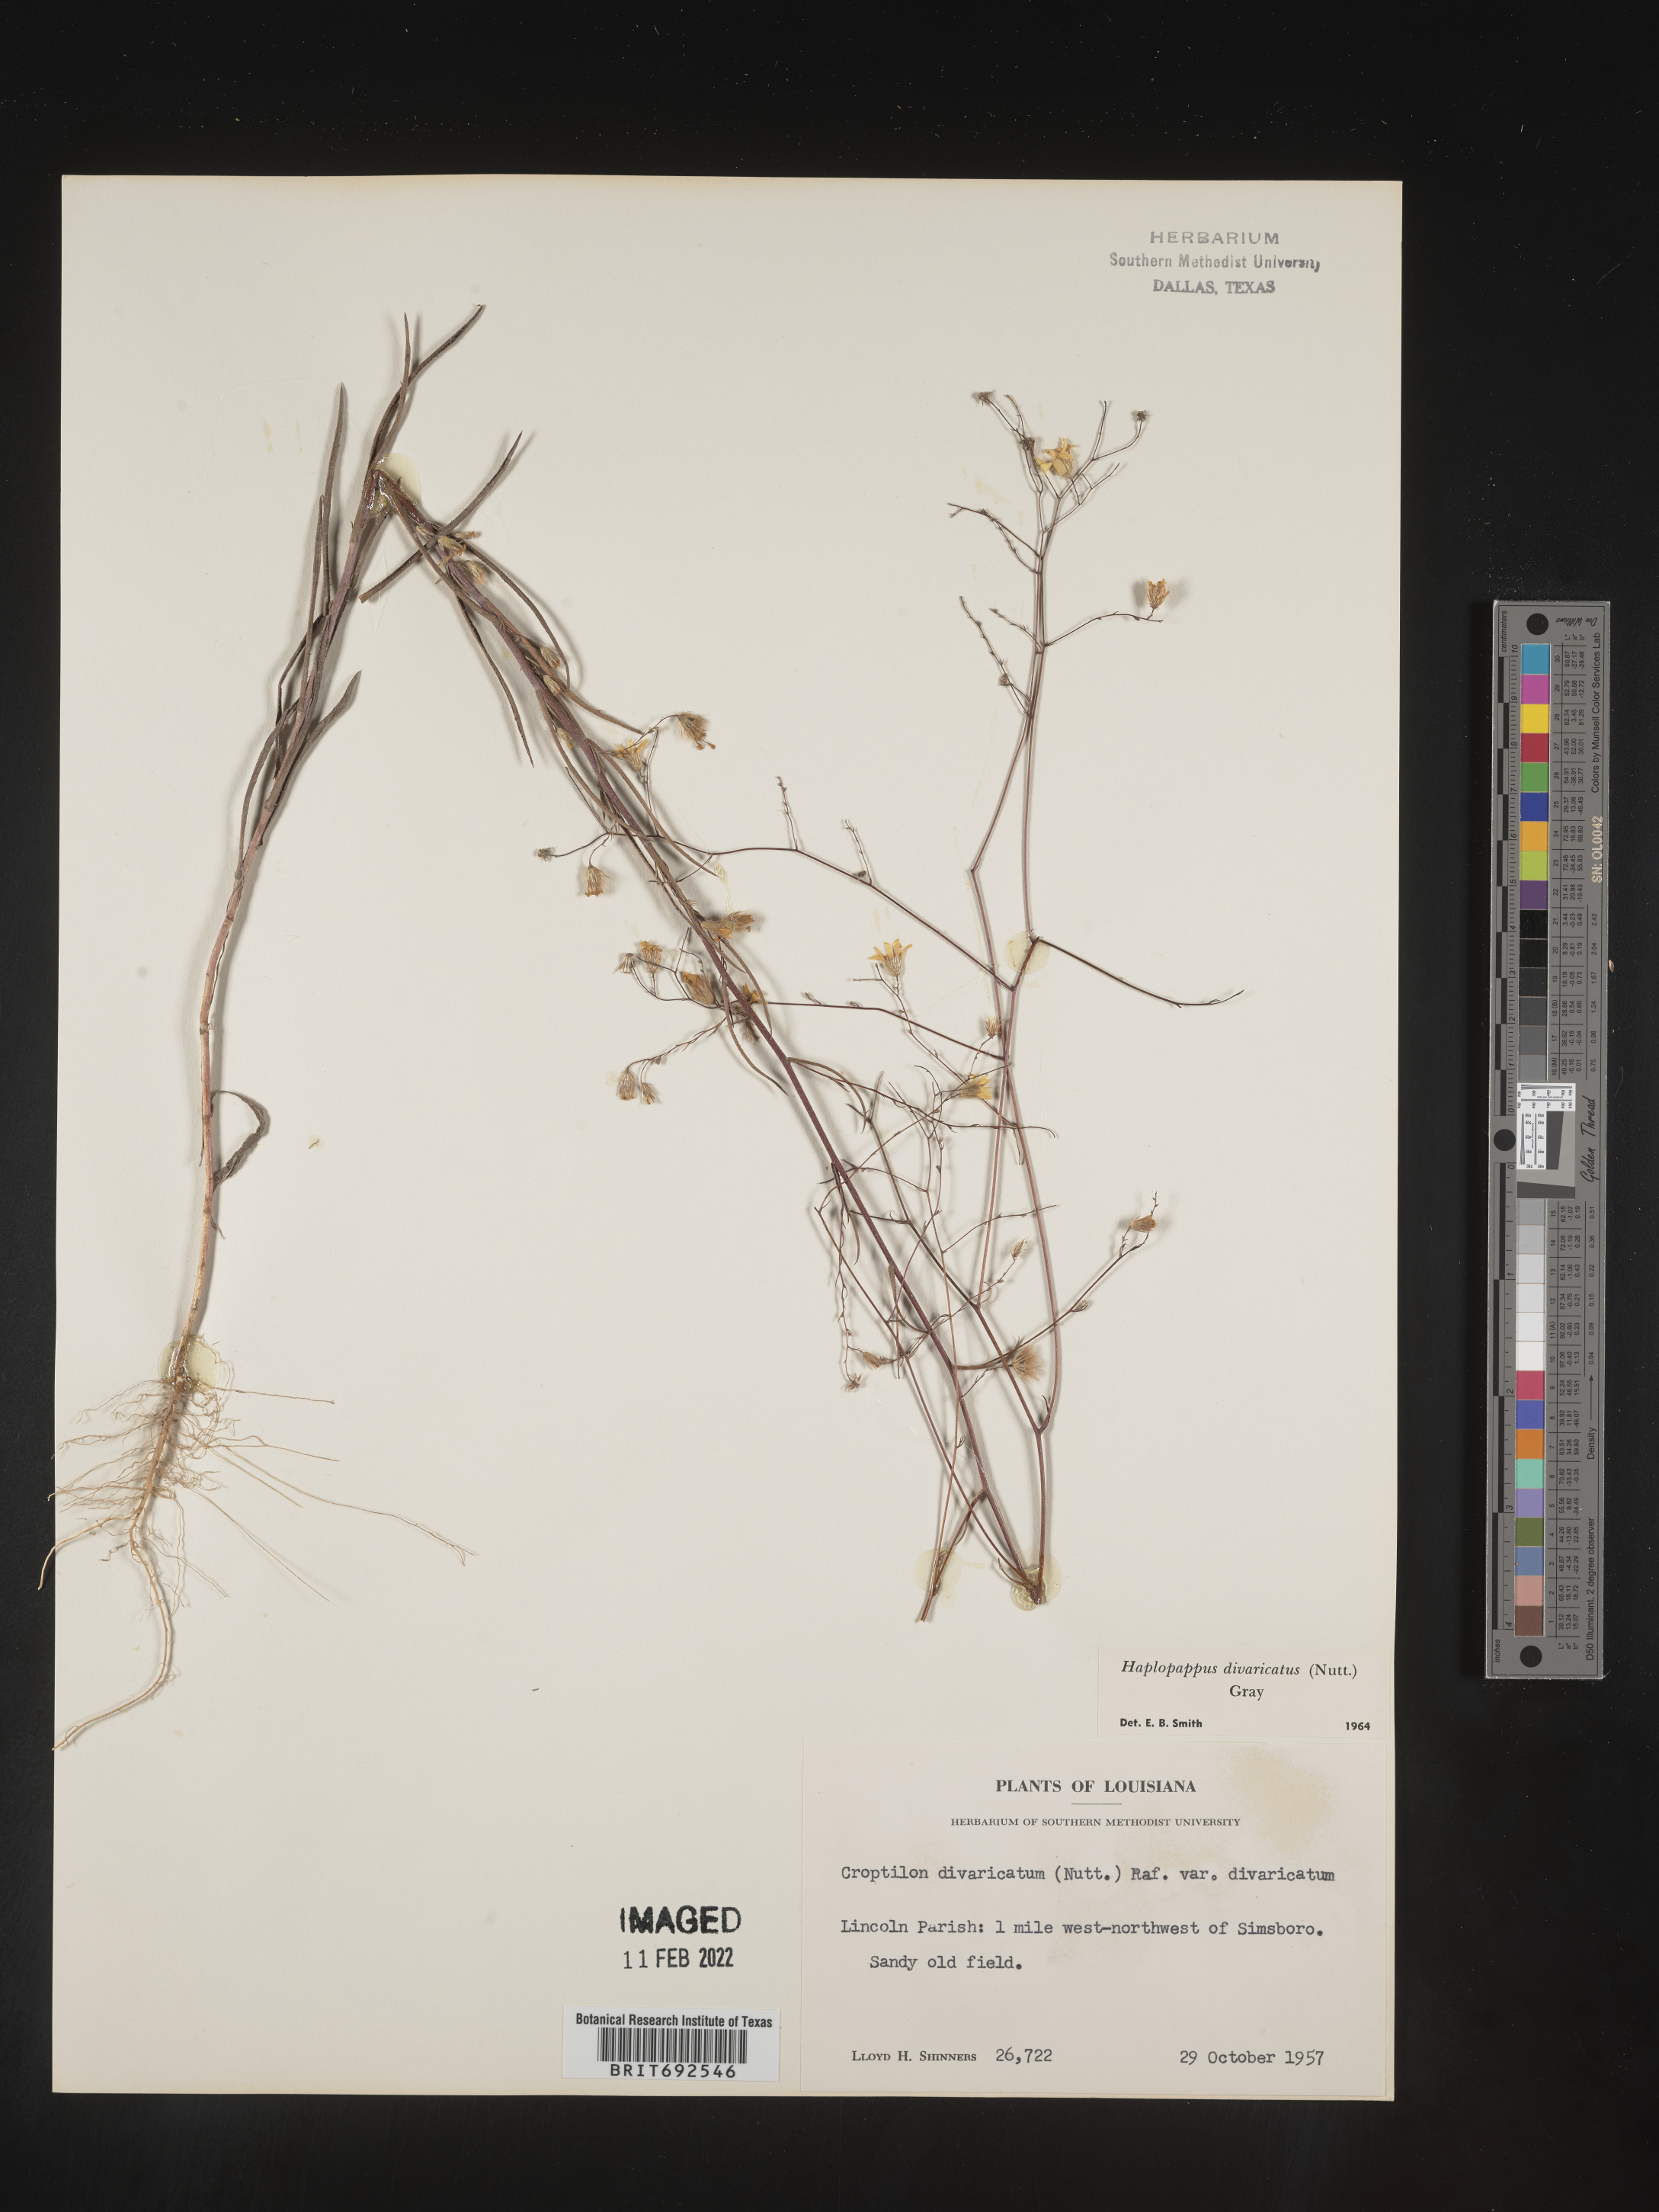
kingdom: Plantae
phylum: Tracheophyta
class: Magnoliopsida
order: Asterales
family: Asteraceae
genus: Croptilon
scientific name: Croptilon divaricatum
